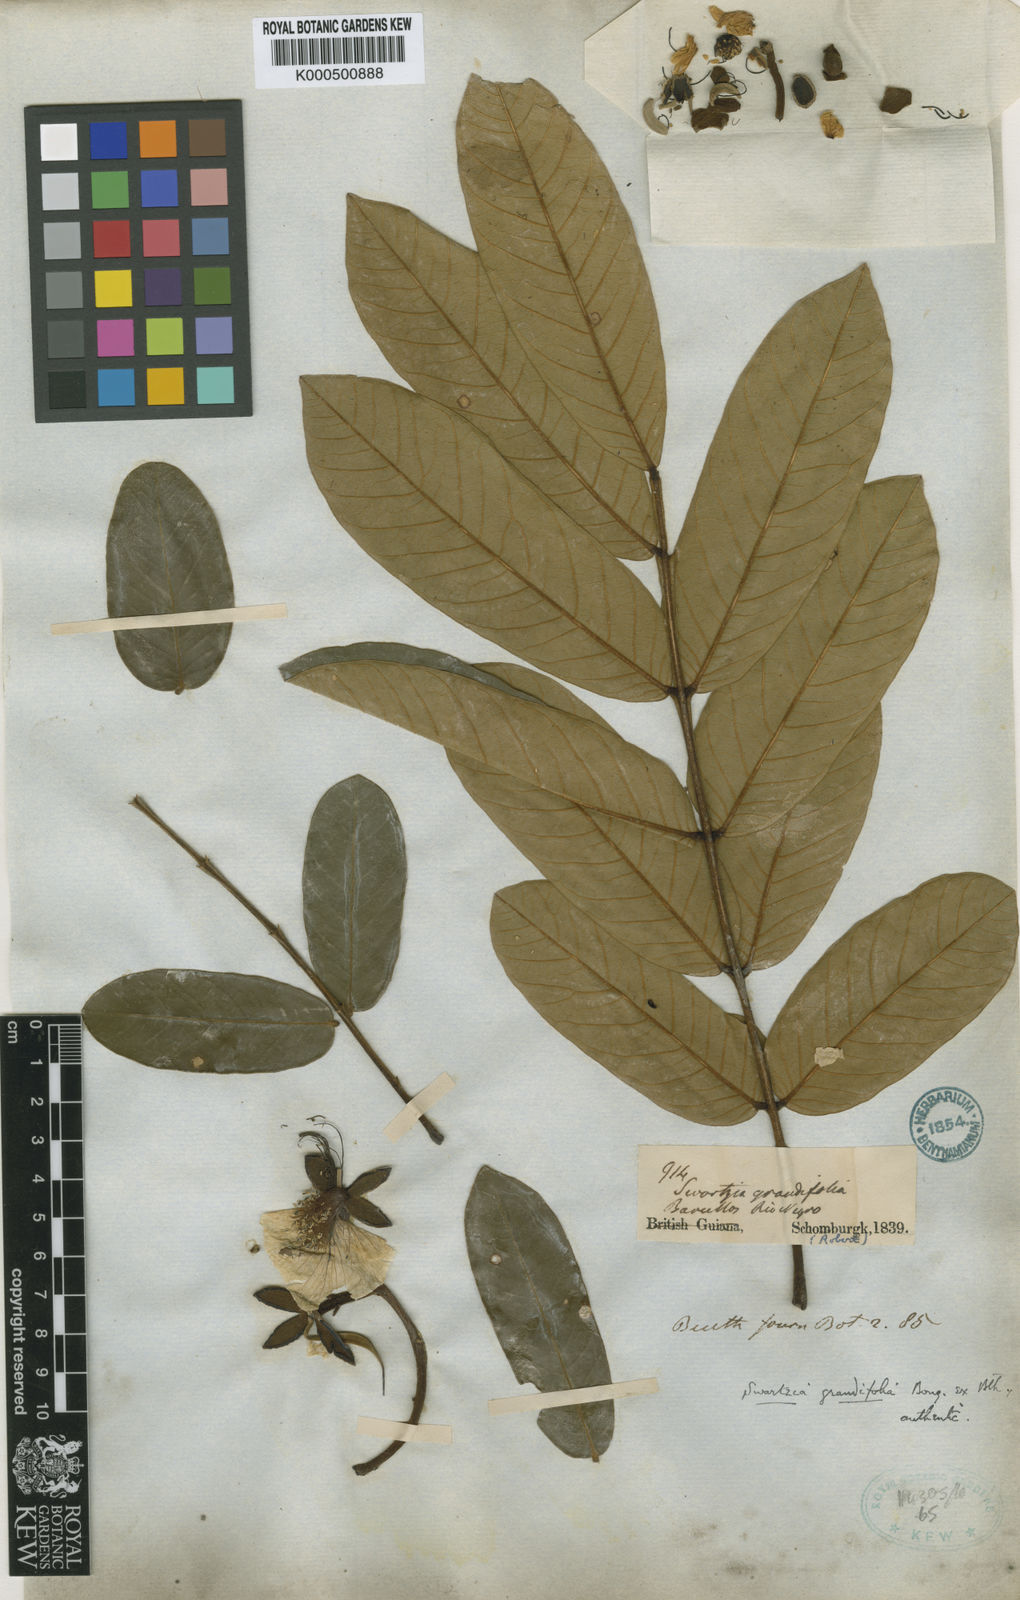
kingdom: Plantae
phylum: Tracheophyta
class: Magnoliopsida
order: Fabales
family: Fabaceae
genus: Swartzia
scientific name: Swartzia grandifolia
